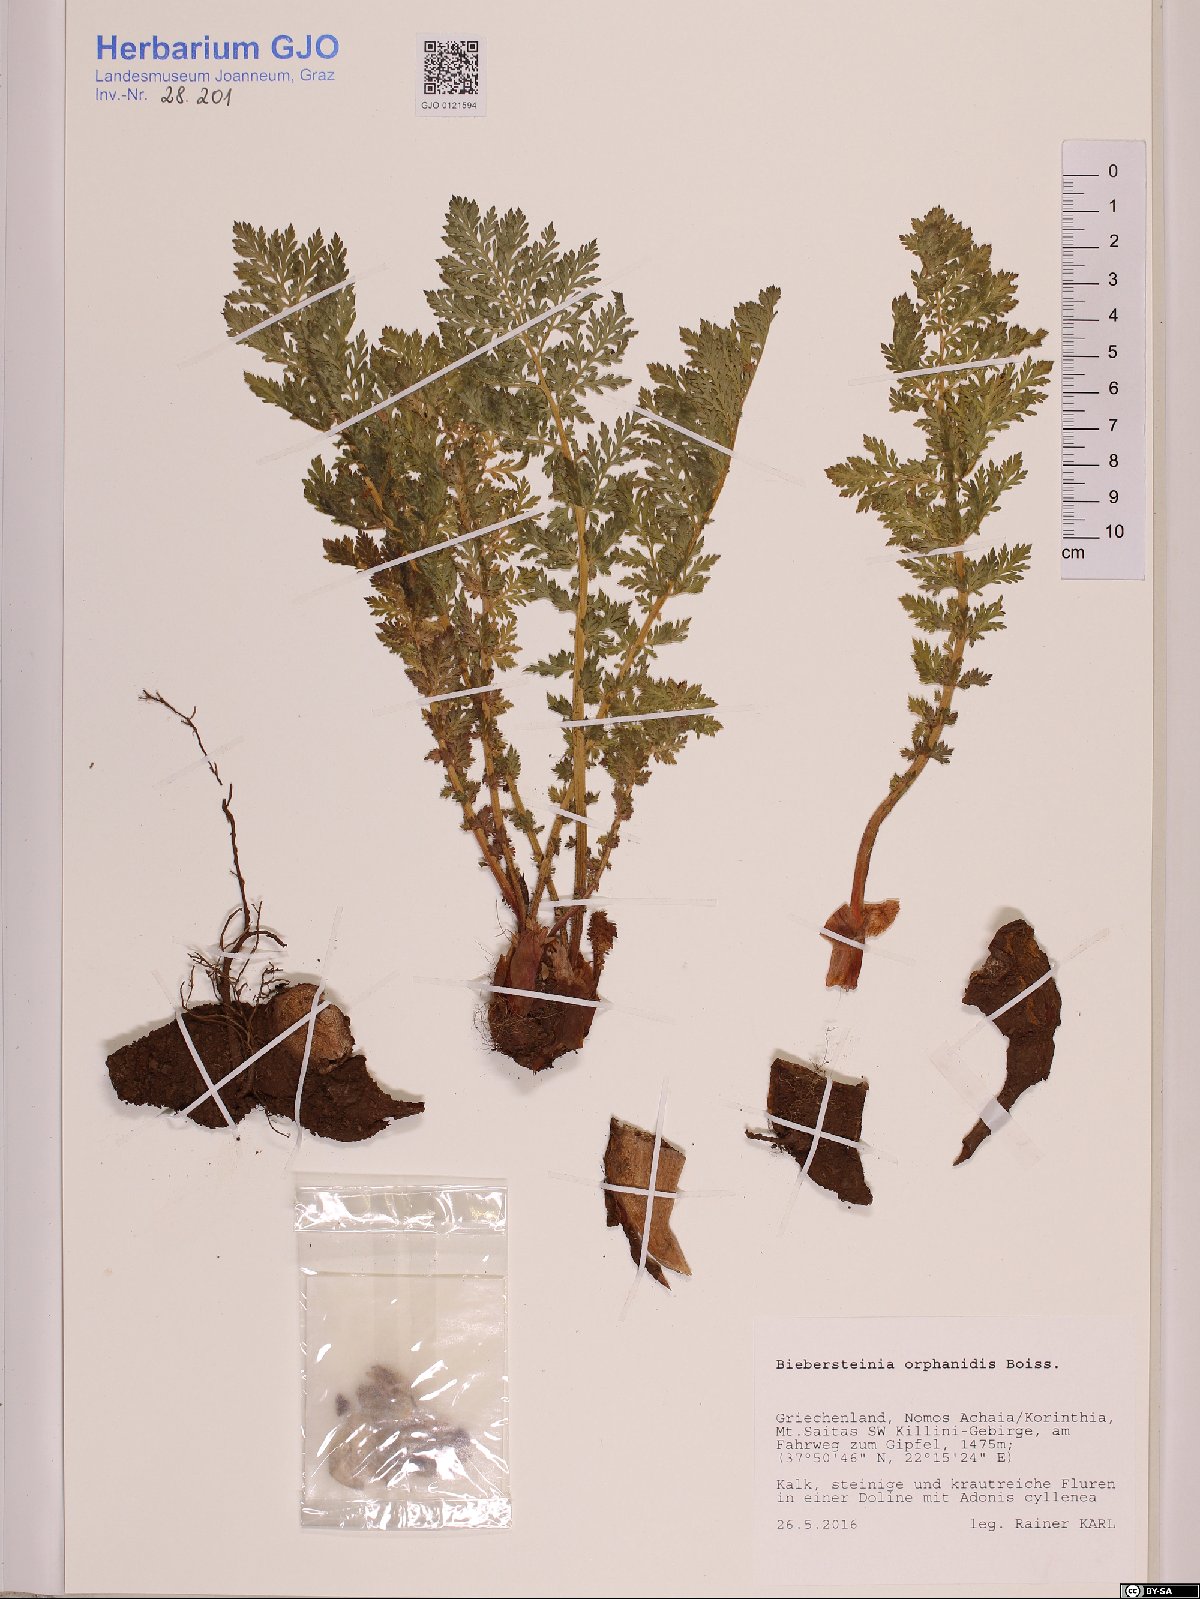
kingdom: Plantae
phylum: Tracheophyta
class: Magnoliopsida
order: Sapindales
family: Biebersteiniaceae
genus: Biebersteinia
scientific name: Biebersteinia orphanidis
